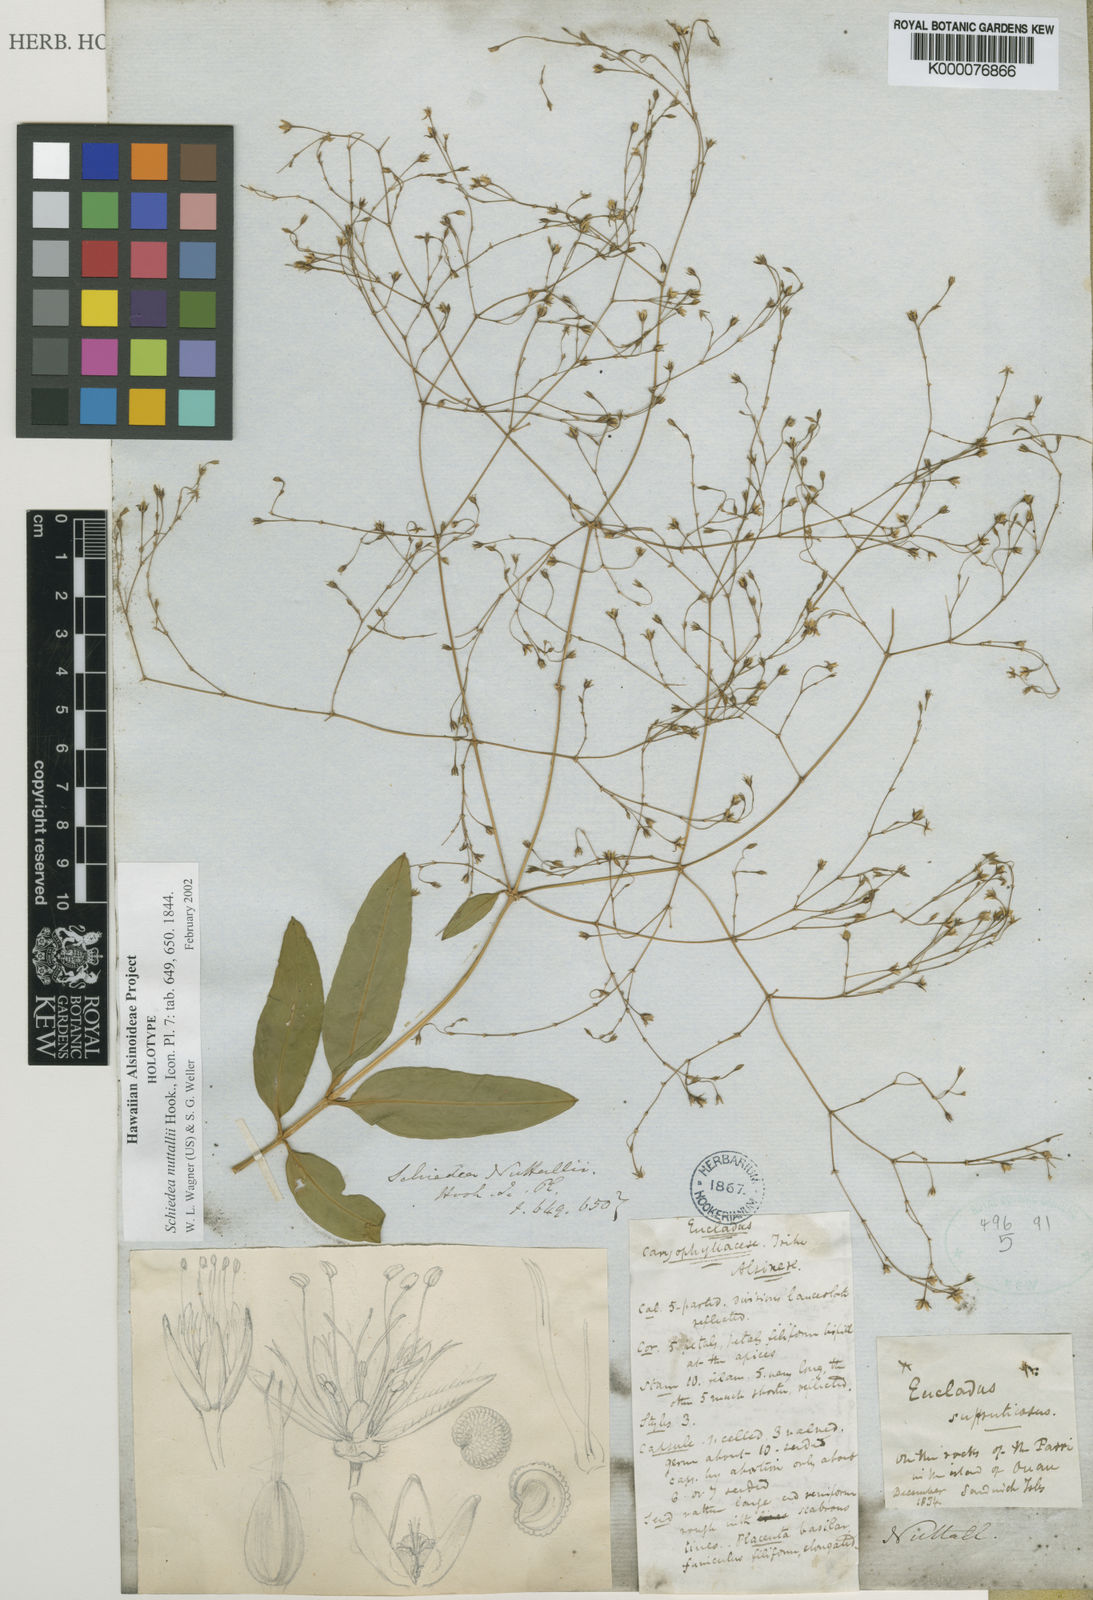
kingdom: Plantae
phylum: Tracheophyta
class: Magnoliopsida
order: Caryophyllales
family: Caryophyllaceae
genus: Schiedea
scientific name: Schiedea nuttallii
